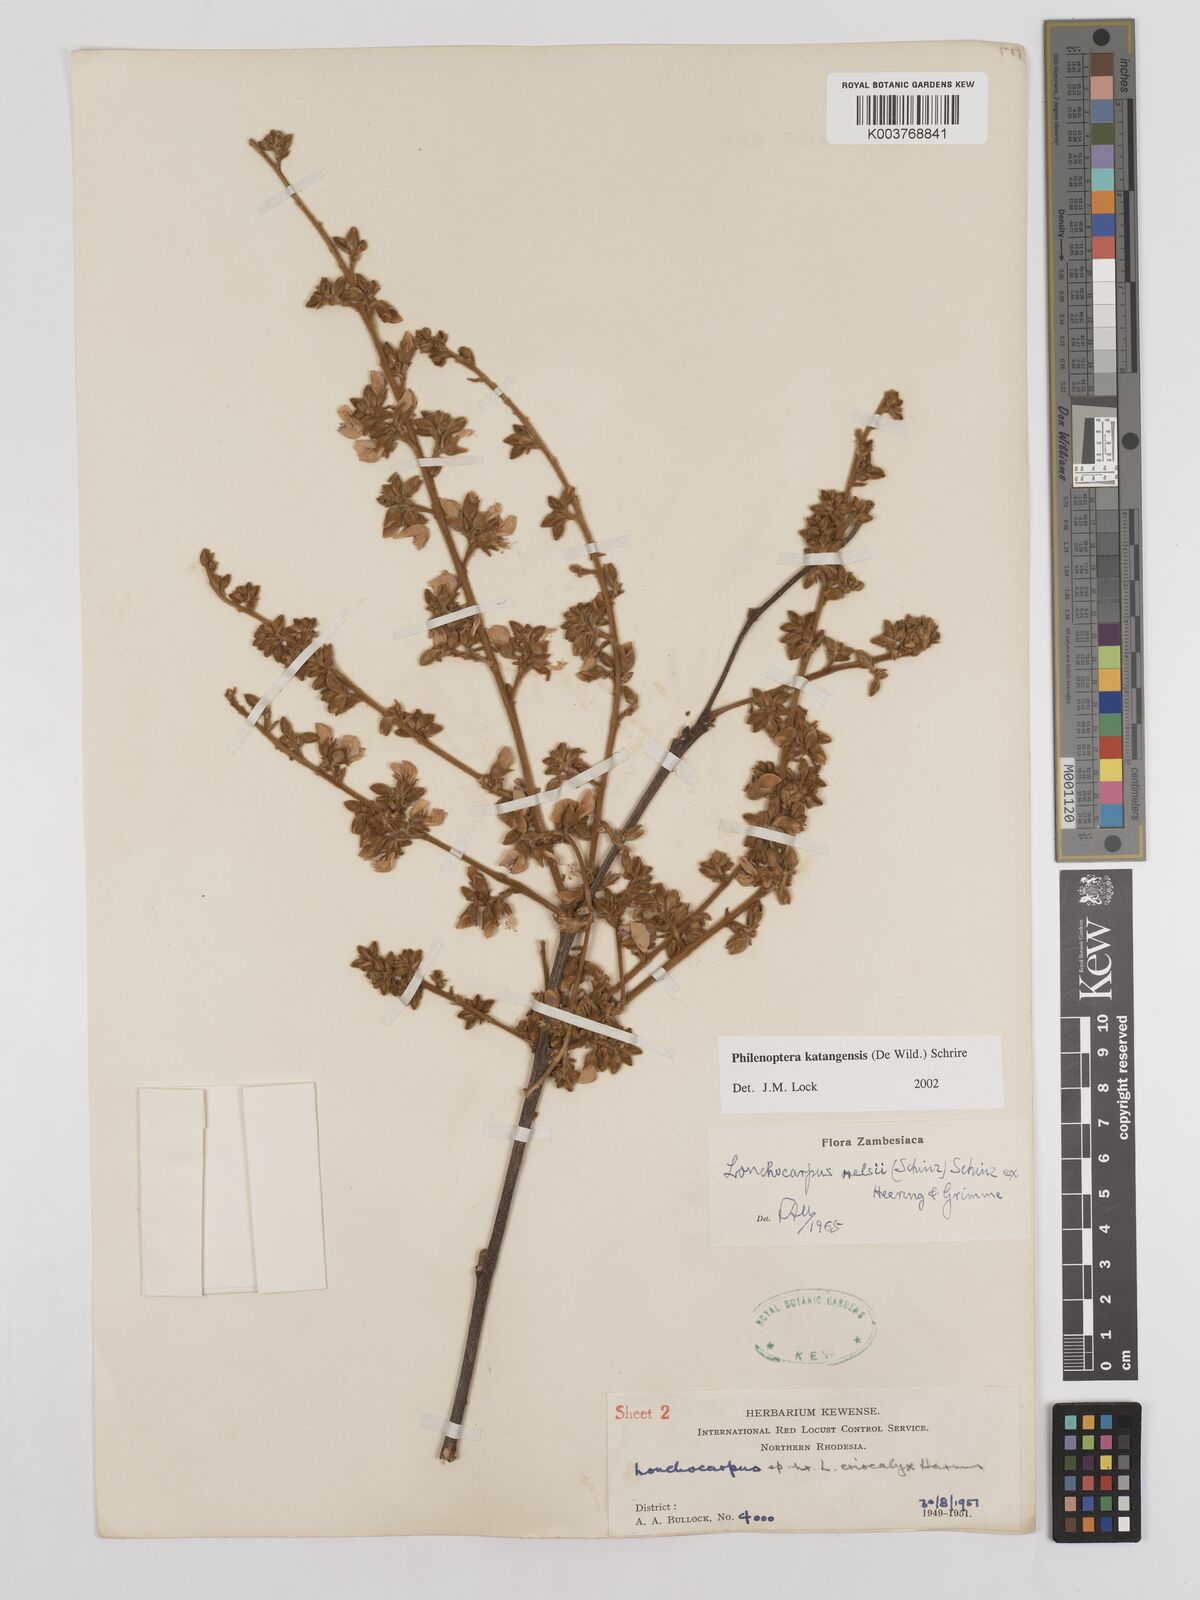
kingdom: Plantae
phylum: Tracheophyta
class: Magnoliopsida
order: Fabales
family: Fabaceae
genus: Philenoptera
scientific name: Philenoptera katangensis
